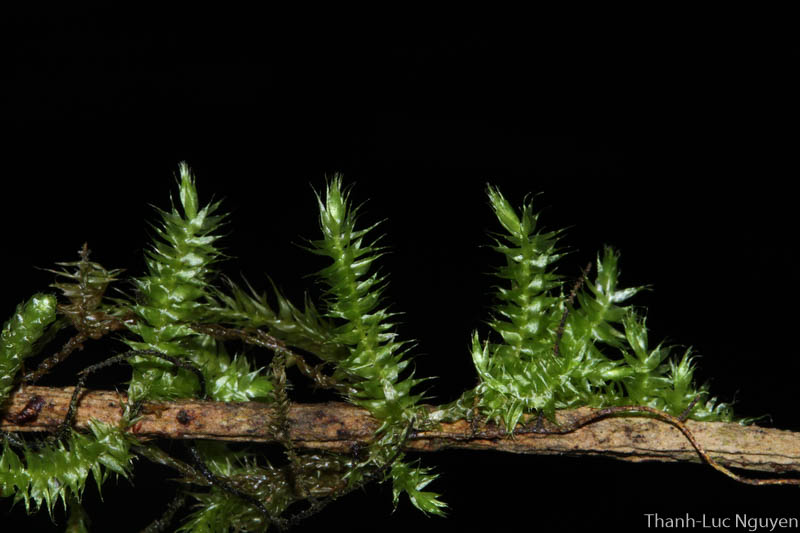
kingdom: Plantae
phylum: Bryophyta
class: Bryopsida
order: Hypnales
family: Meteoriaceae
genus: Barbellopsis
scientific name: Barbellopsis
